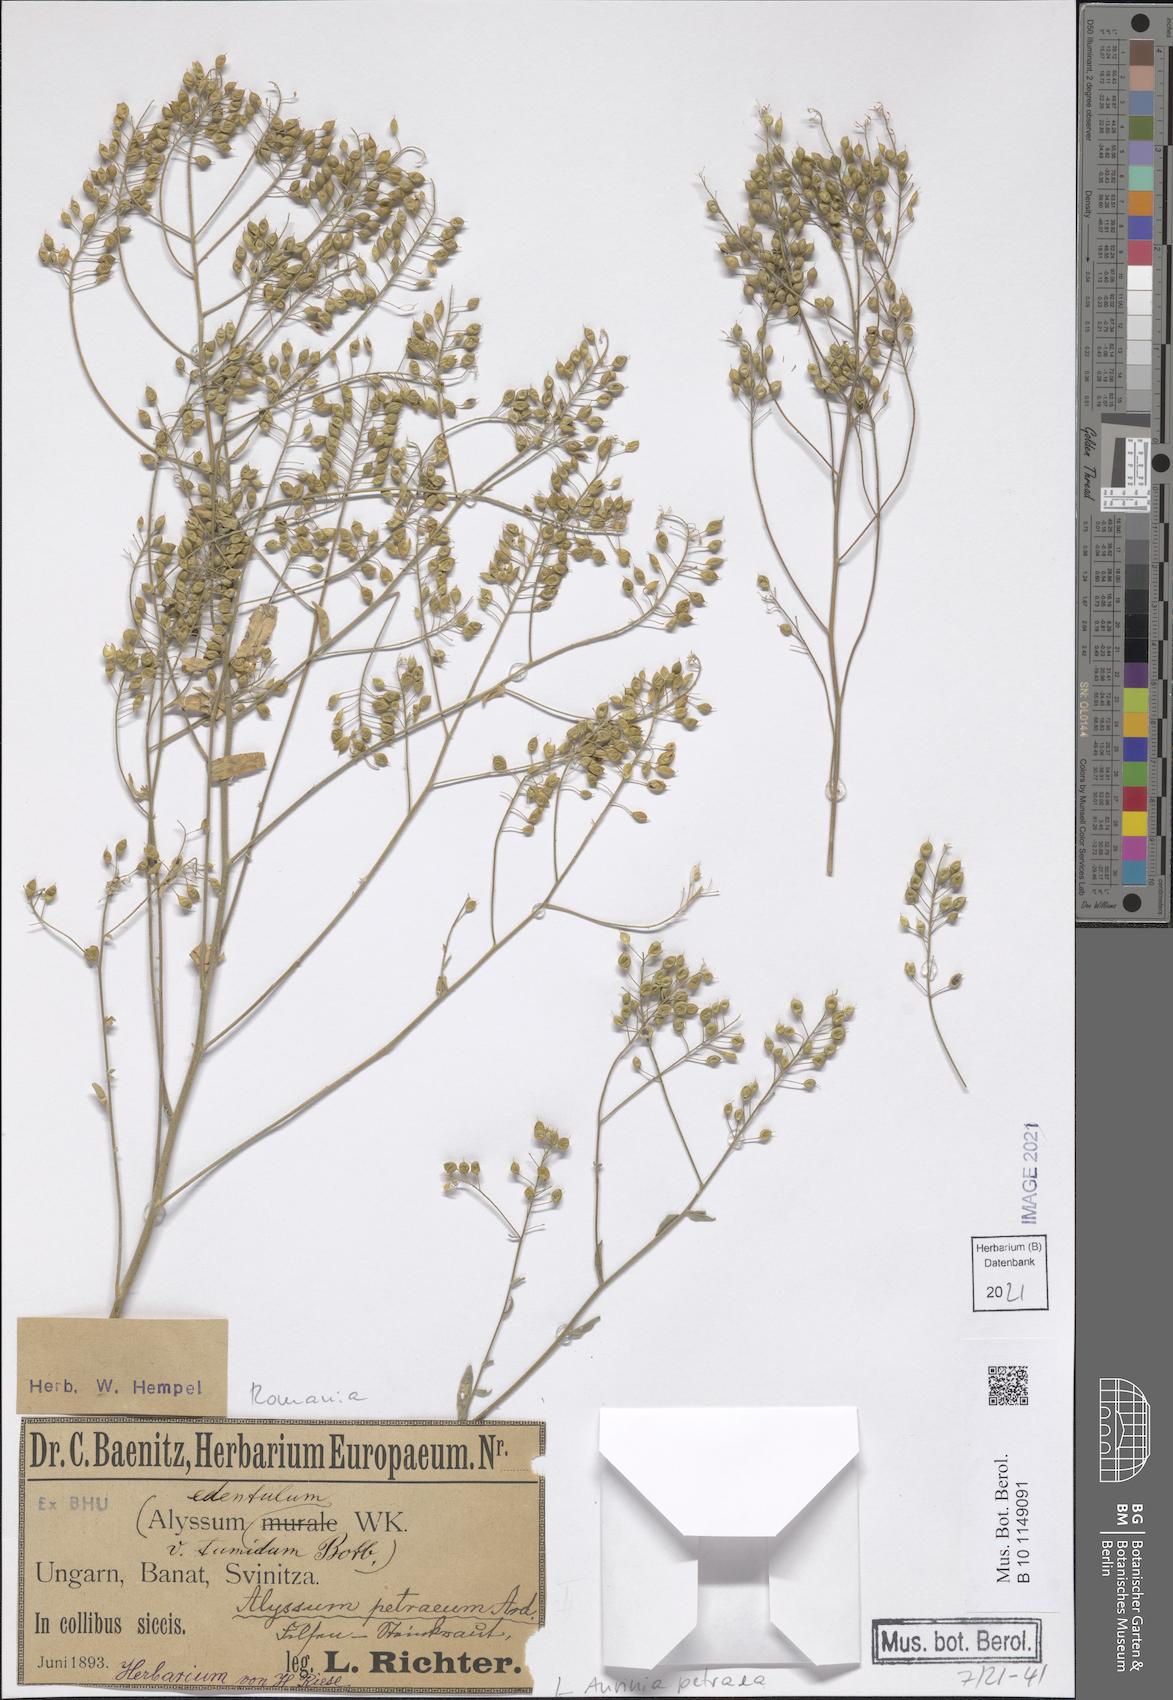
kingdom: Plantae
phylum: Tracheophyta
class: Magnoliopsida
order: Brassicales
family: Brassicaceae
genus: Aurinia
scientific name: Aurinia petraea
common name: Goldentuft
